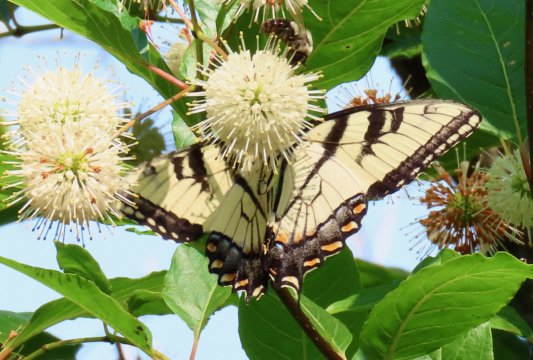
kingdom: Animalia
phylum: Arthropoda
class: Insecta
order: Lepidoptera
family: Papilionidae
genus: Pterourus
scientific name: Pterourus glaucus
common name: Eastern Tiger Swallowtail
